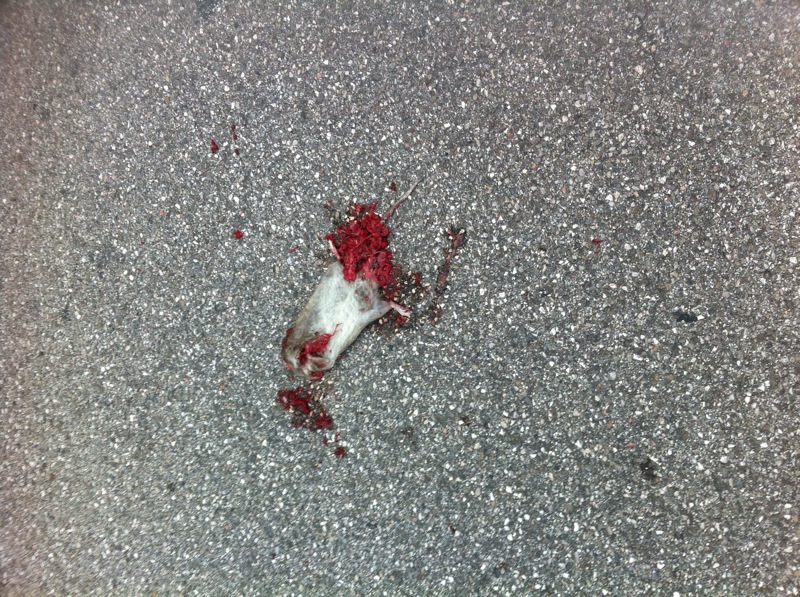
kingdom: Animalia
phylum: Chordata
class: Mammalia
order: Rodentia
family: Muridae
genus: Apodemus
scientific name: Apodemus
